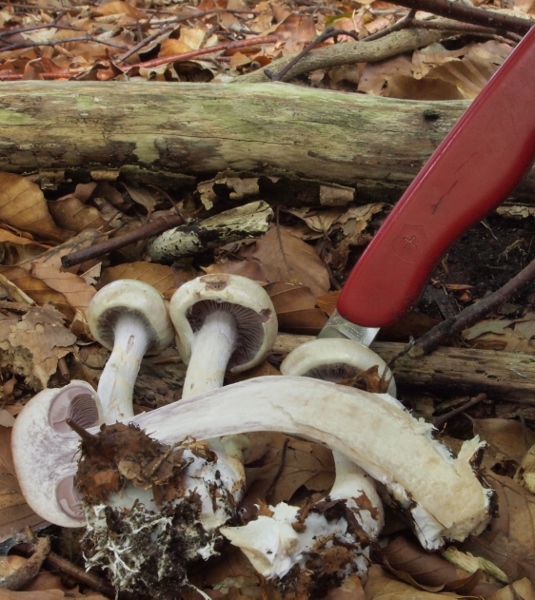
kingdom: Fungi
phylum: Basidiomycota
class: Agaricomycetes
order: Agaricales
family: Cortinariaceae
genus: Cortinarius
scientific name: Cortinarius
